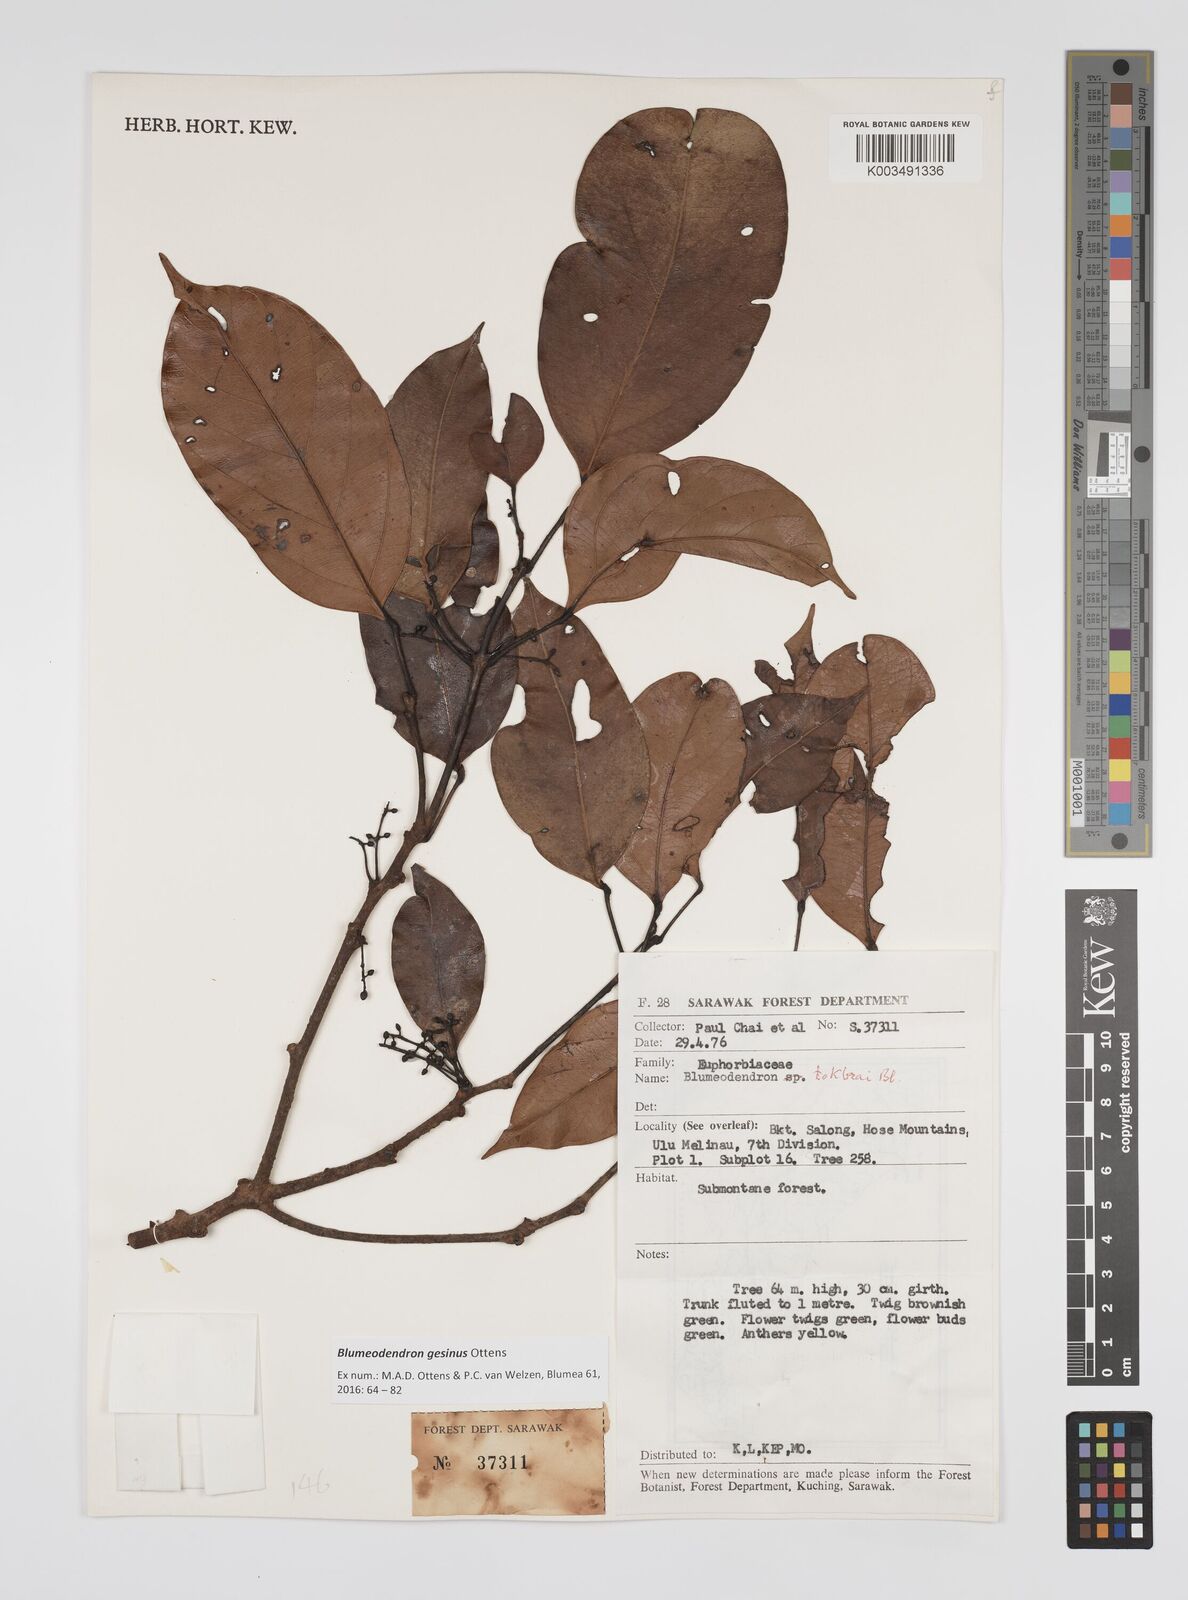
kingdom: Plantae
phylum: Tracheophyta
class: Magnoliopsida
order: Malpighiales
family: Euphorbiaceae
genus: Blumeodendron
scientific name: Blumeodendron gesinus
